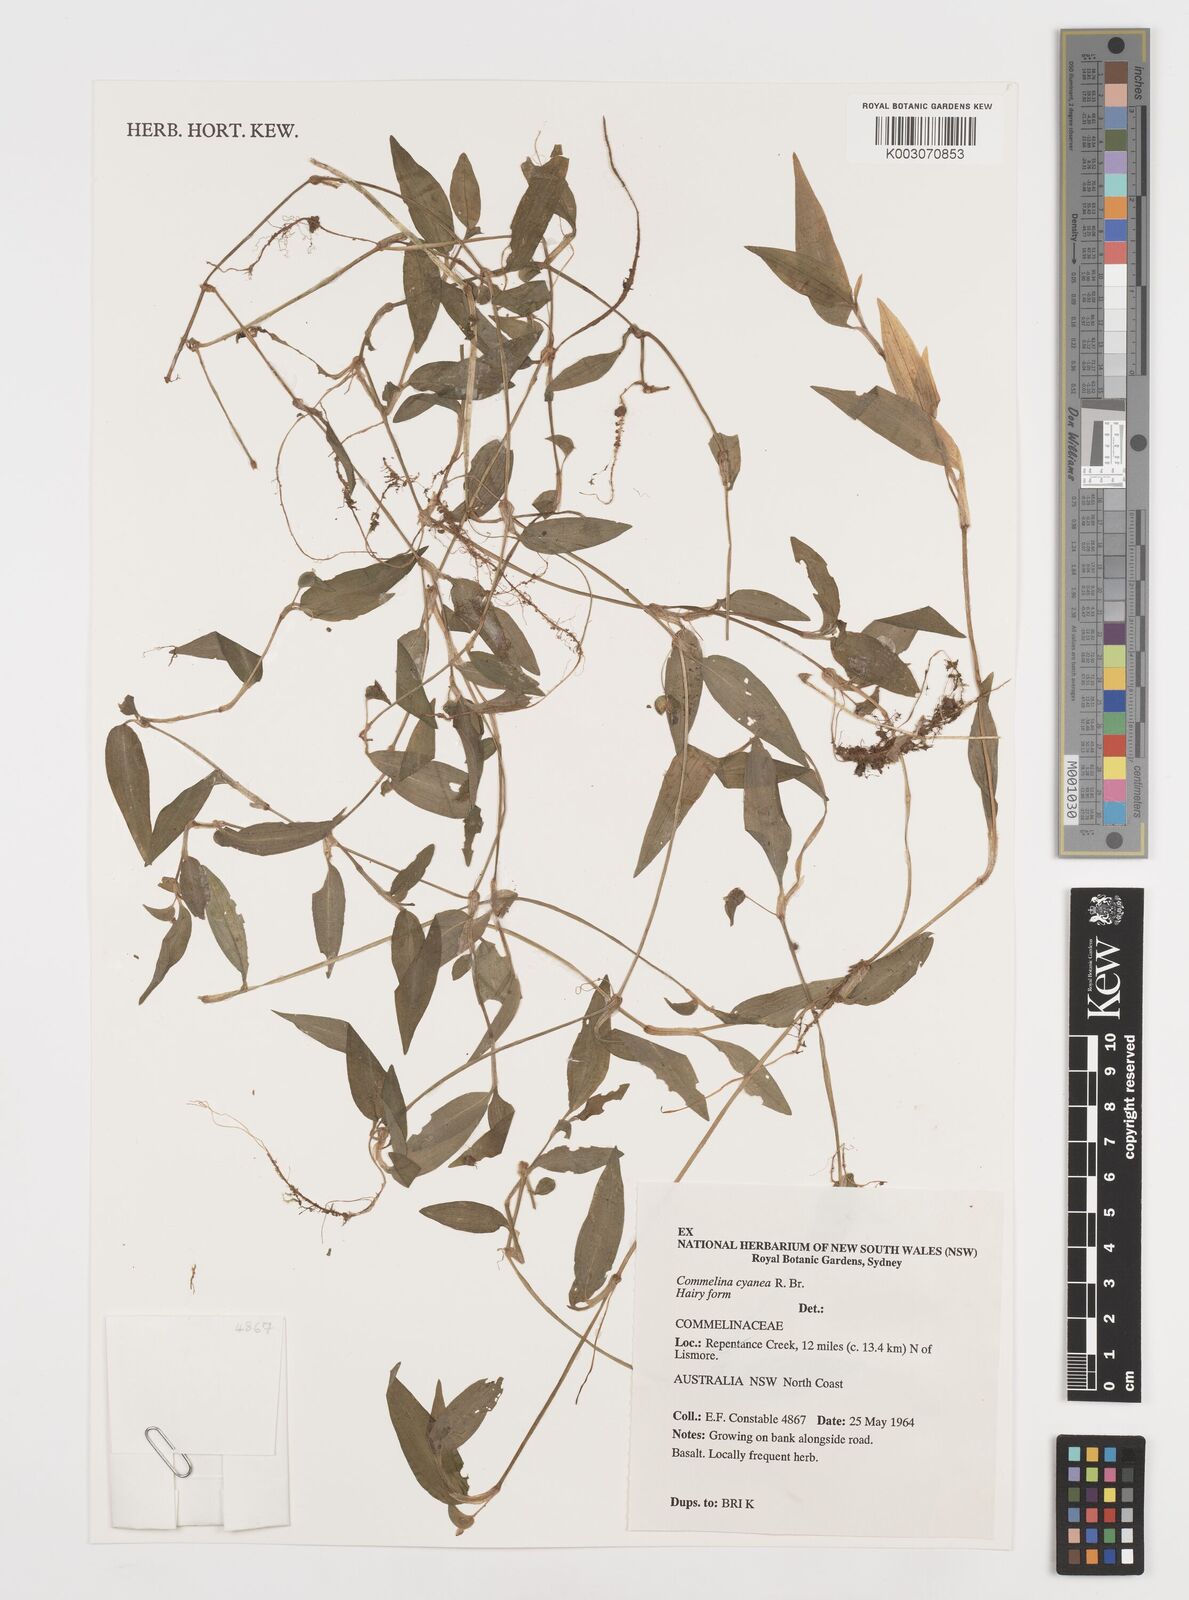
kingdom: Plantae
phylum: Tracheophyta
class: Liliopsida
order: Commelinales
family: Commelinaceae
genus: Commelina
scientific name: Commelina cyanea
